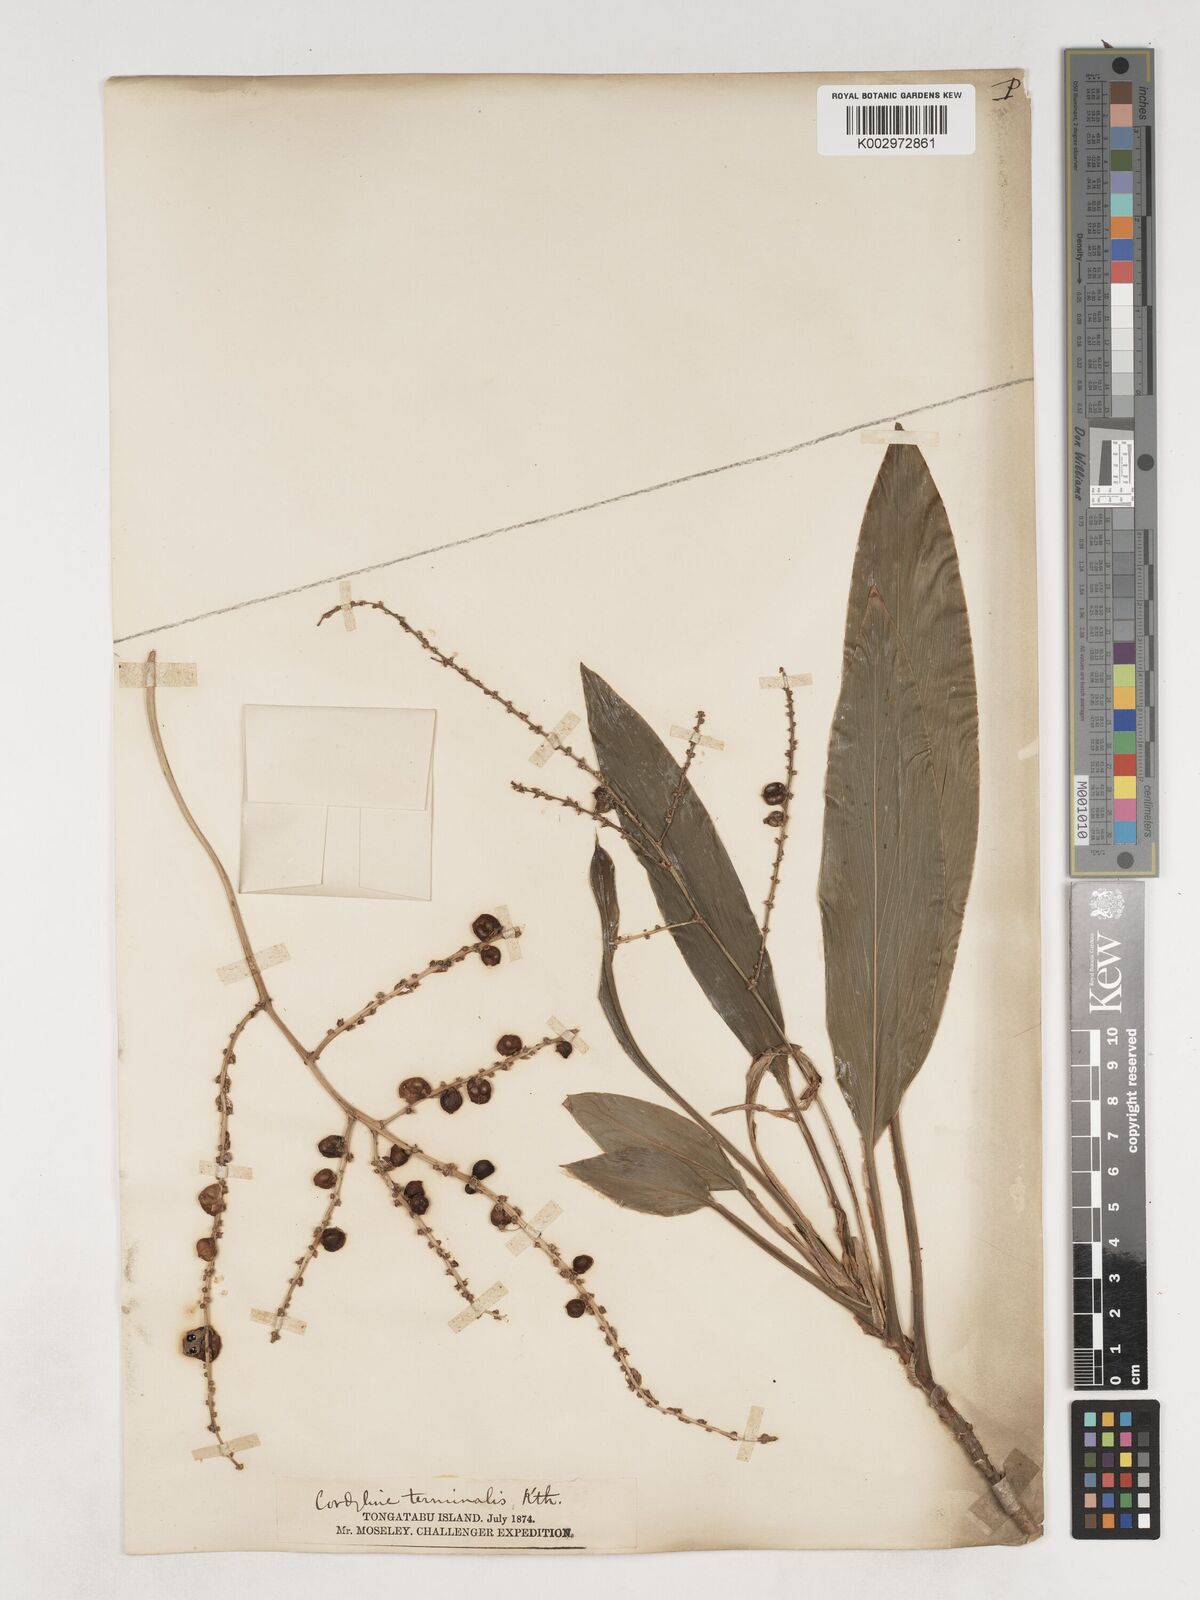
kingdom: Plantae
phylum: Tracheophyta
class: Liliopsida
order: Asparagales
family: Asparagaceae
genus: Cordyline
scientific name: Cordyline fruticosa
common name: Good-luck-plant
